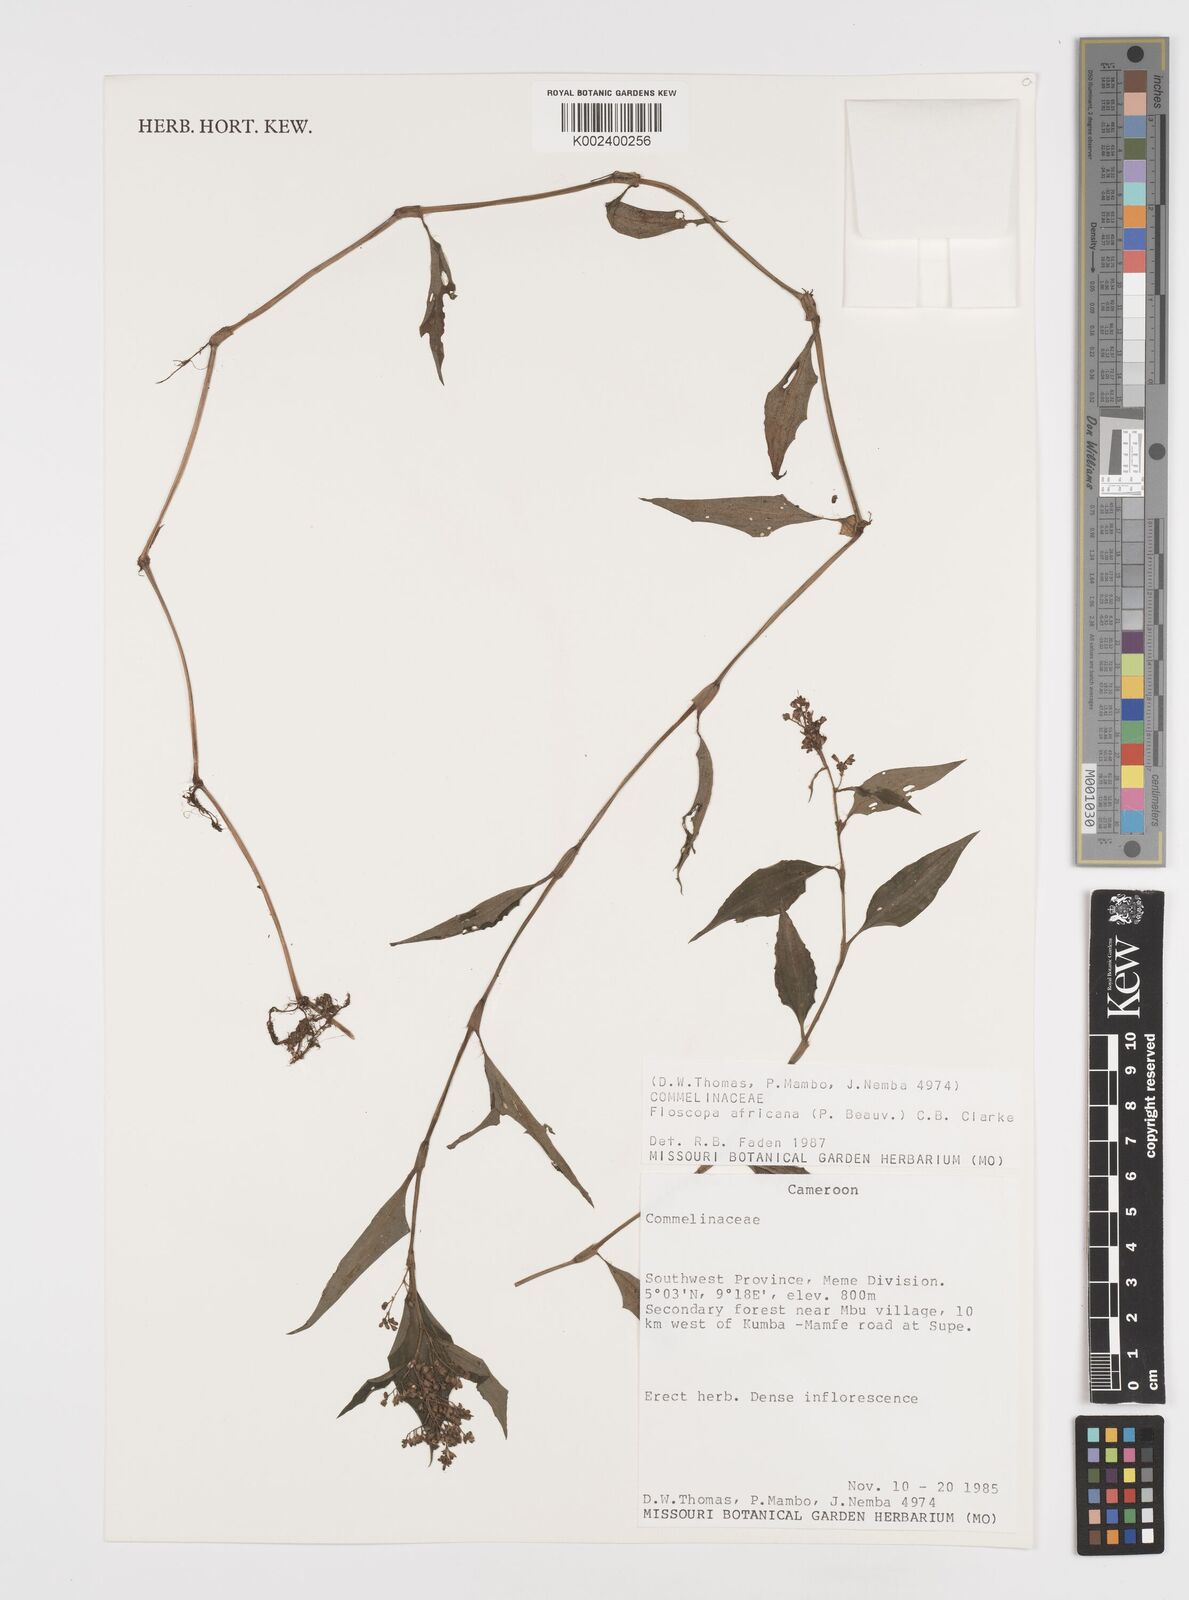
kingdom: Plantae
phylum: Tracheophyta
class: Liliopsida
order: Commelinales
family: Commelinaceae
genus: Floscopa
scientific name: Floscopa africana
